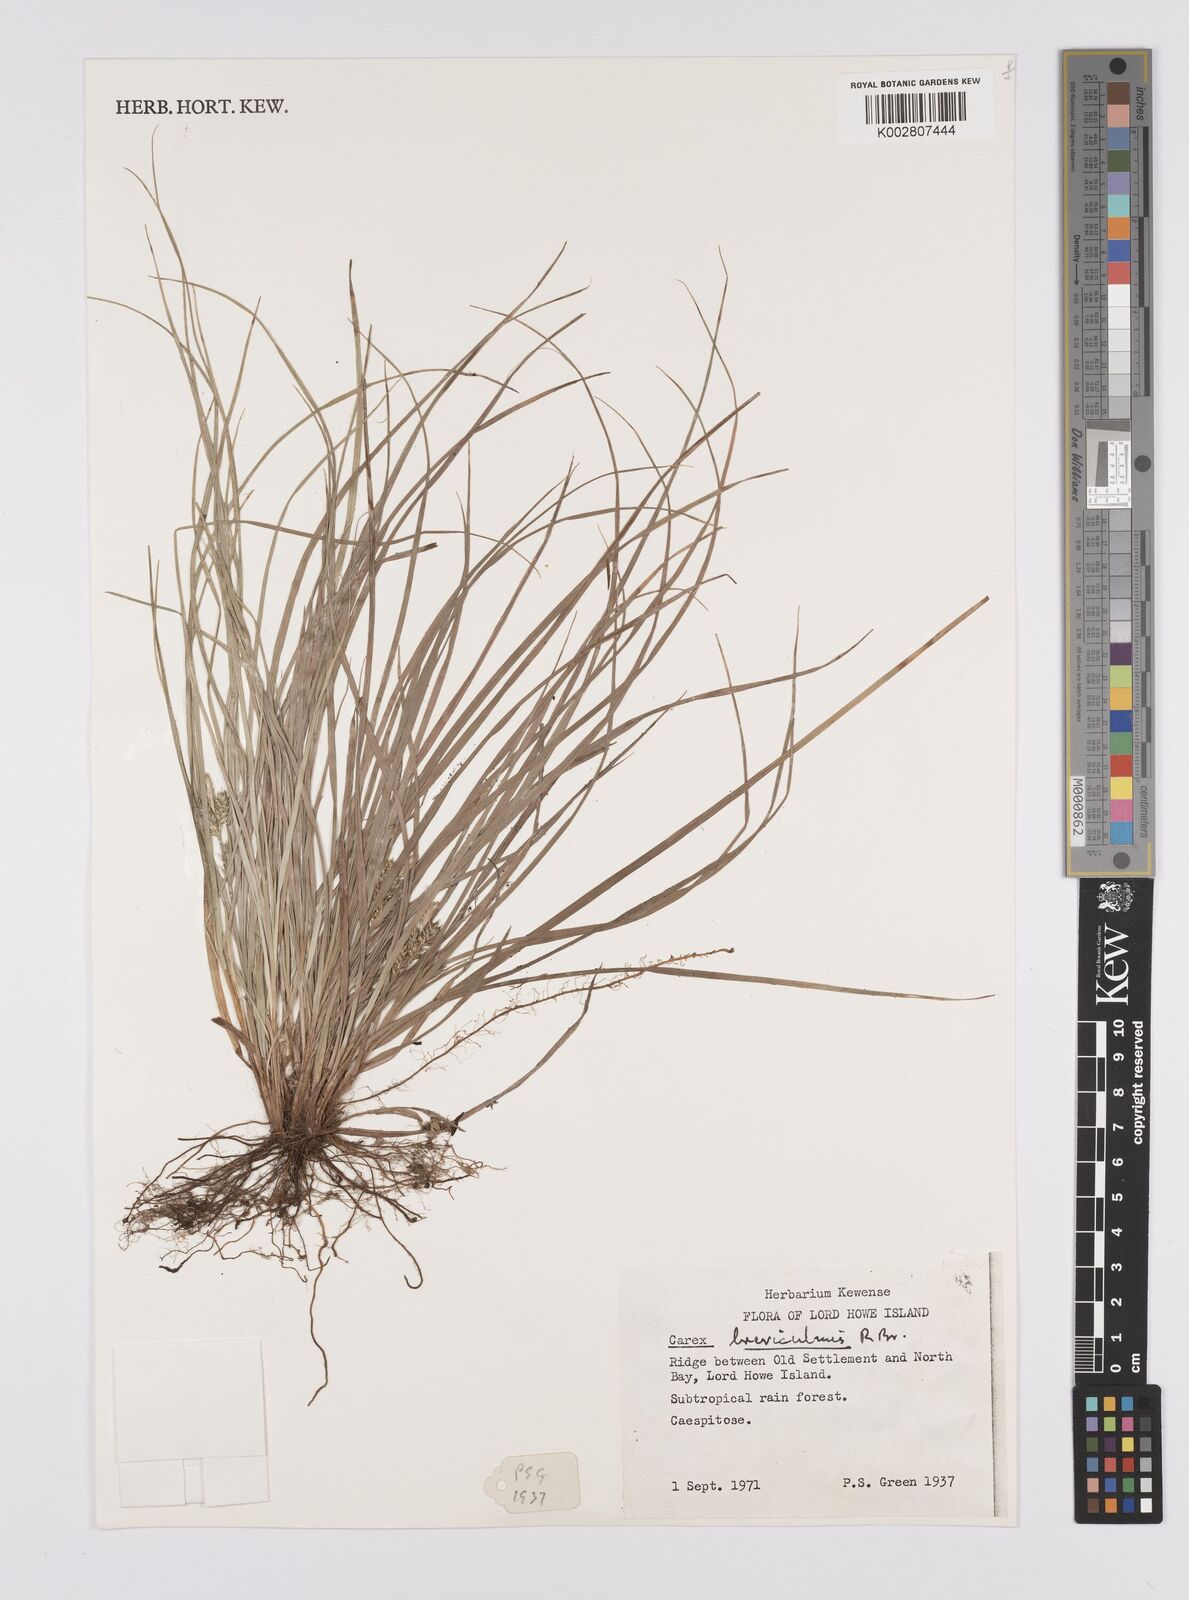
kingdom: Plantae
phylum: Tracheophyta
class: Liliopsida
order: Poales
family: Cyperaceae
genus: Carex
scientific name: Carex breviculmis
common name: Asian shortstem sedge
